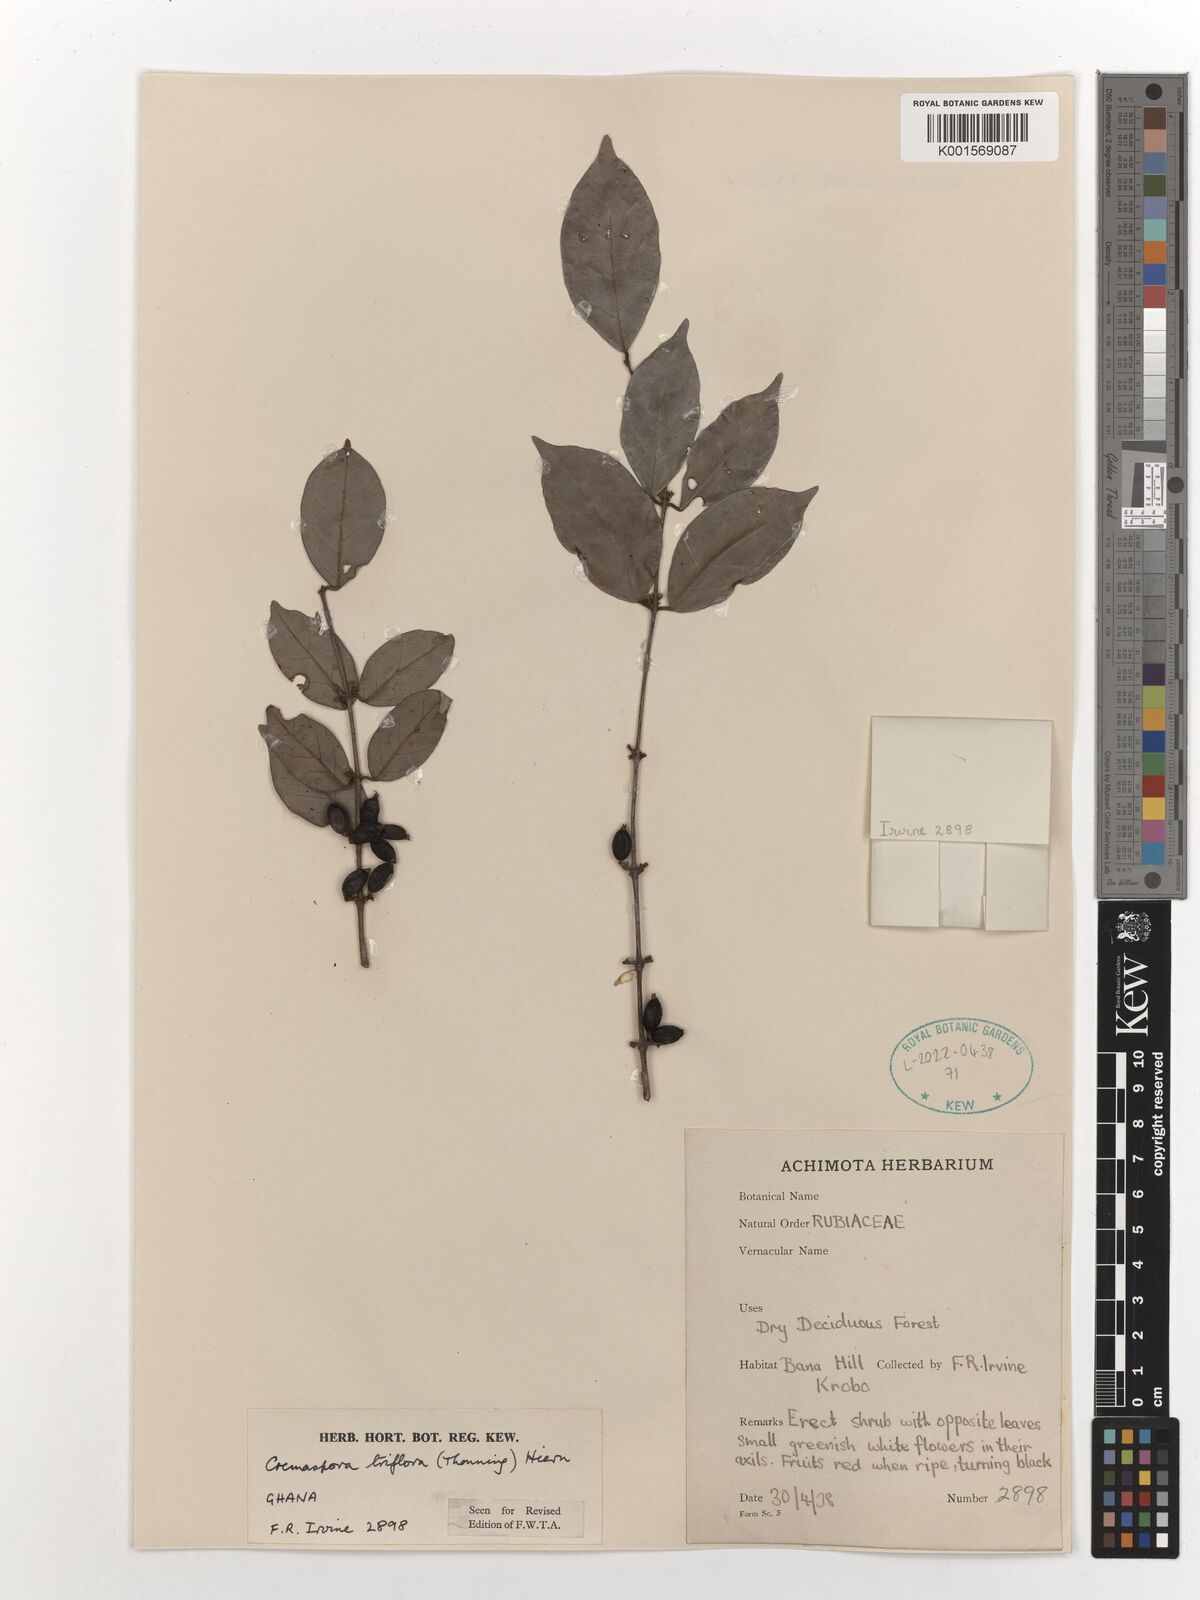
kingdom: Plantae
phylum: Tracheophyta
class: Magnoliopsida
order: Gentianales
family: Rubiaceae
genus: Cremaspora
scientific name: Cremaspora triflora
